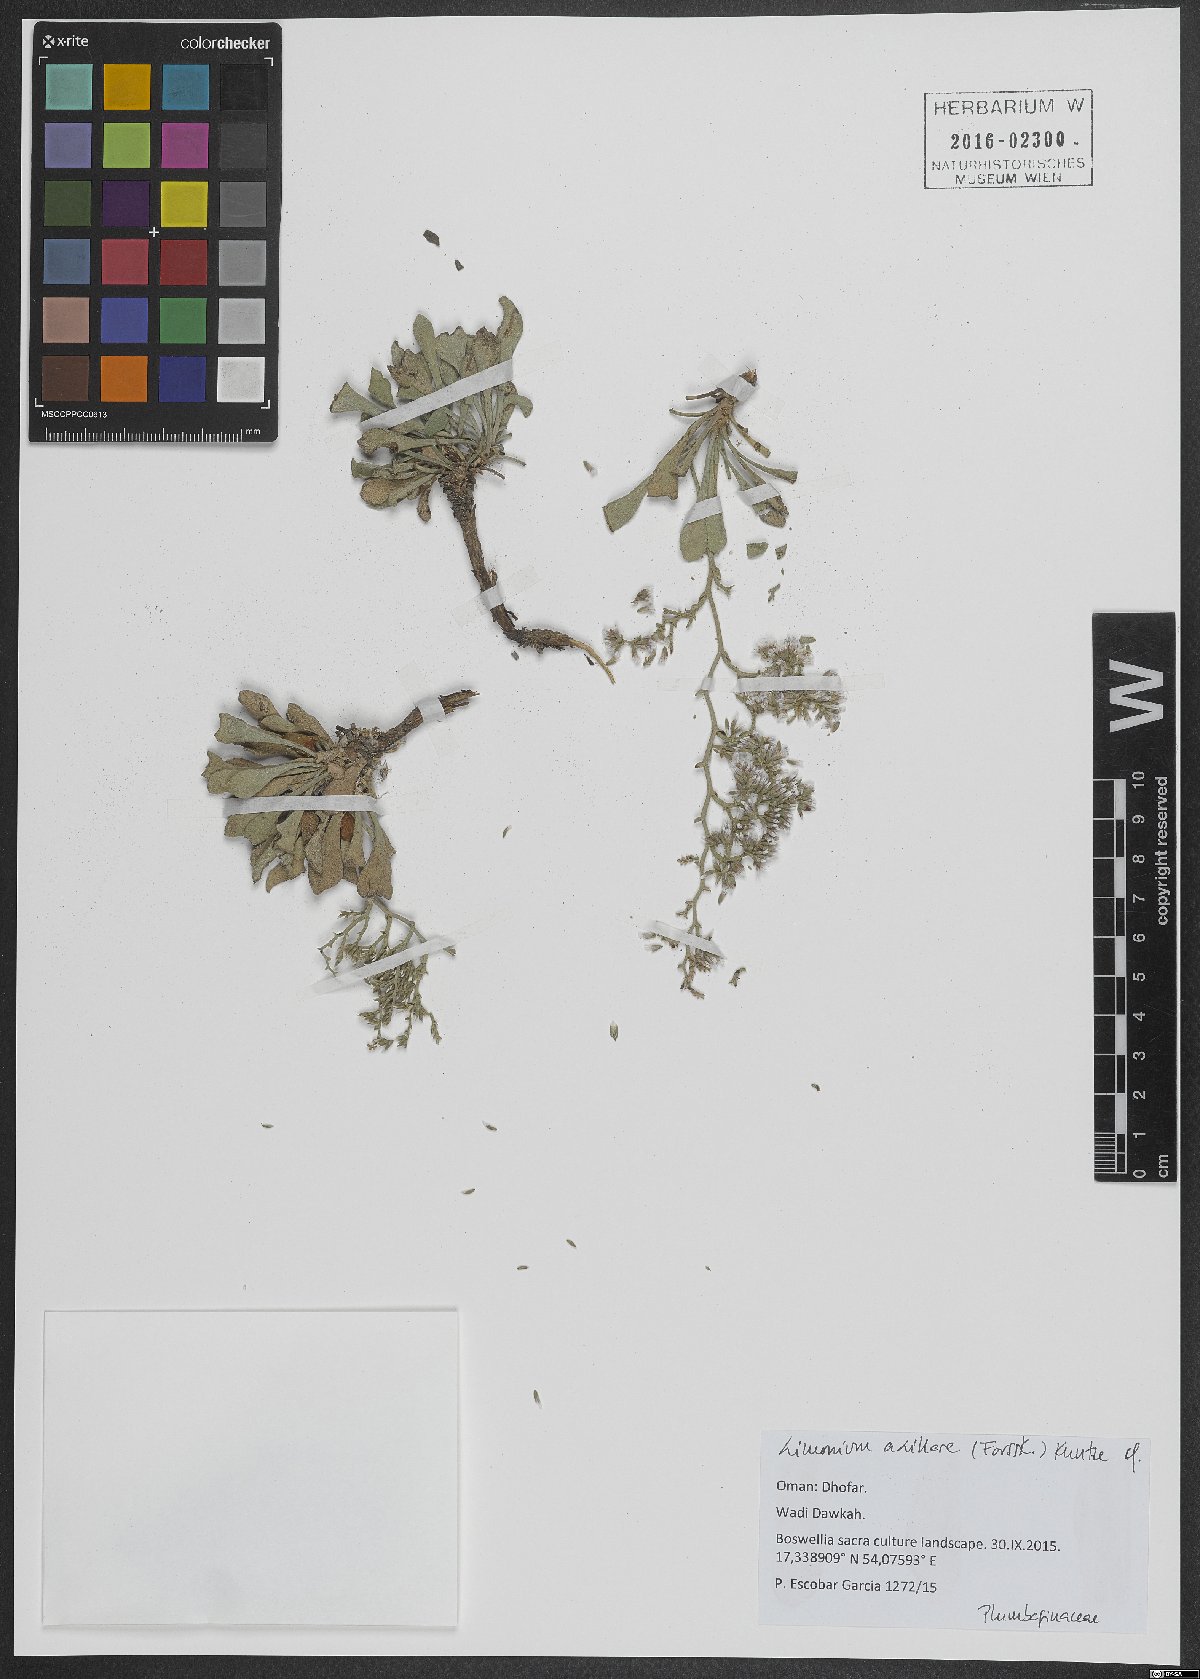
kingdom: Plantae
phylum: Tracheophyta
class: Magnoliopsida
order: Caryophyllales
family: Plumbaginaceae
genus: Limonium
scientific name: Limonium axillare
